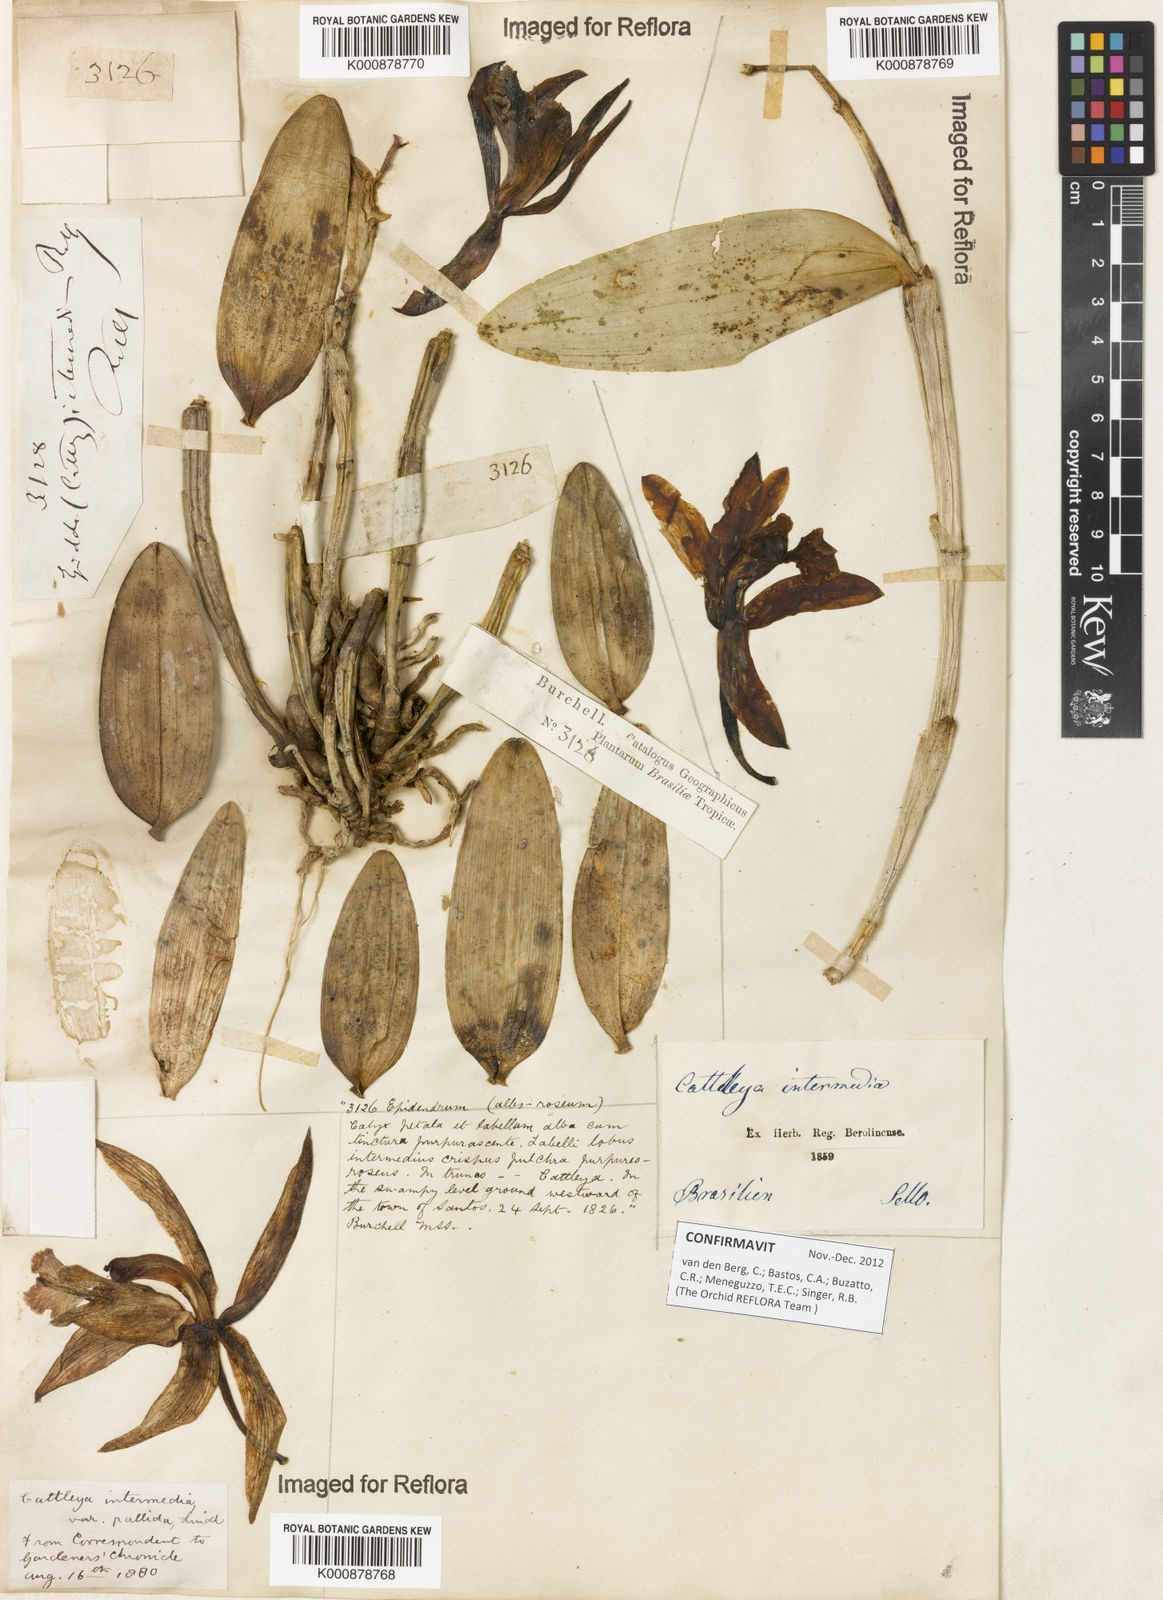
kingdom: Plantae
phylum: Tracheophyta
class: Liliopsida
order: Asparagales
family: Orchidaceae
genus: Cattleya
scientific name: Cattleya intermedia
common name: Intermediate cattleya
